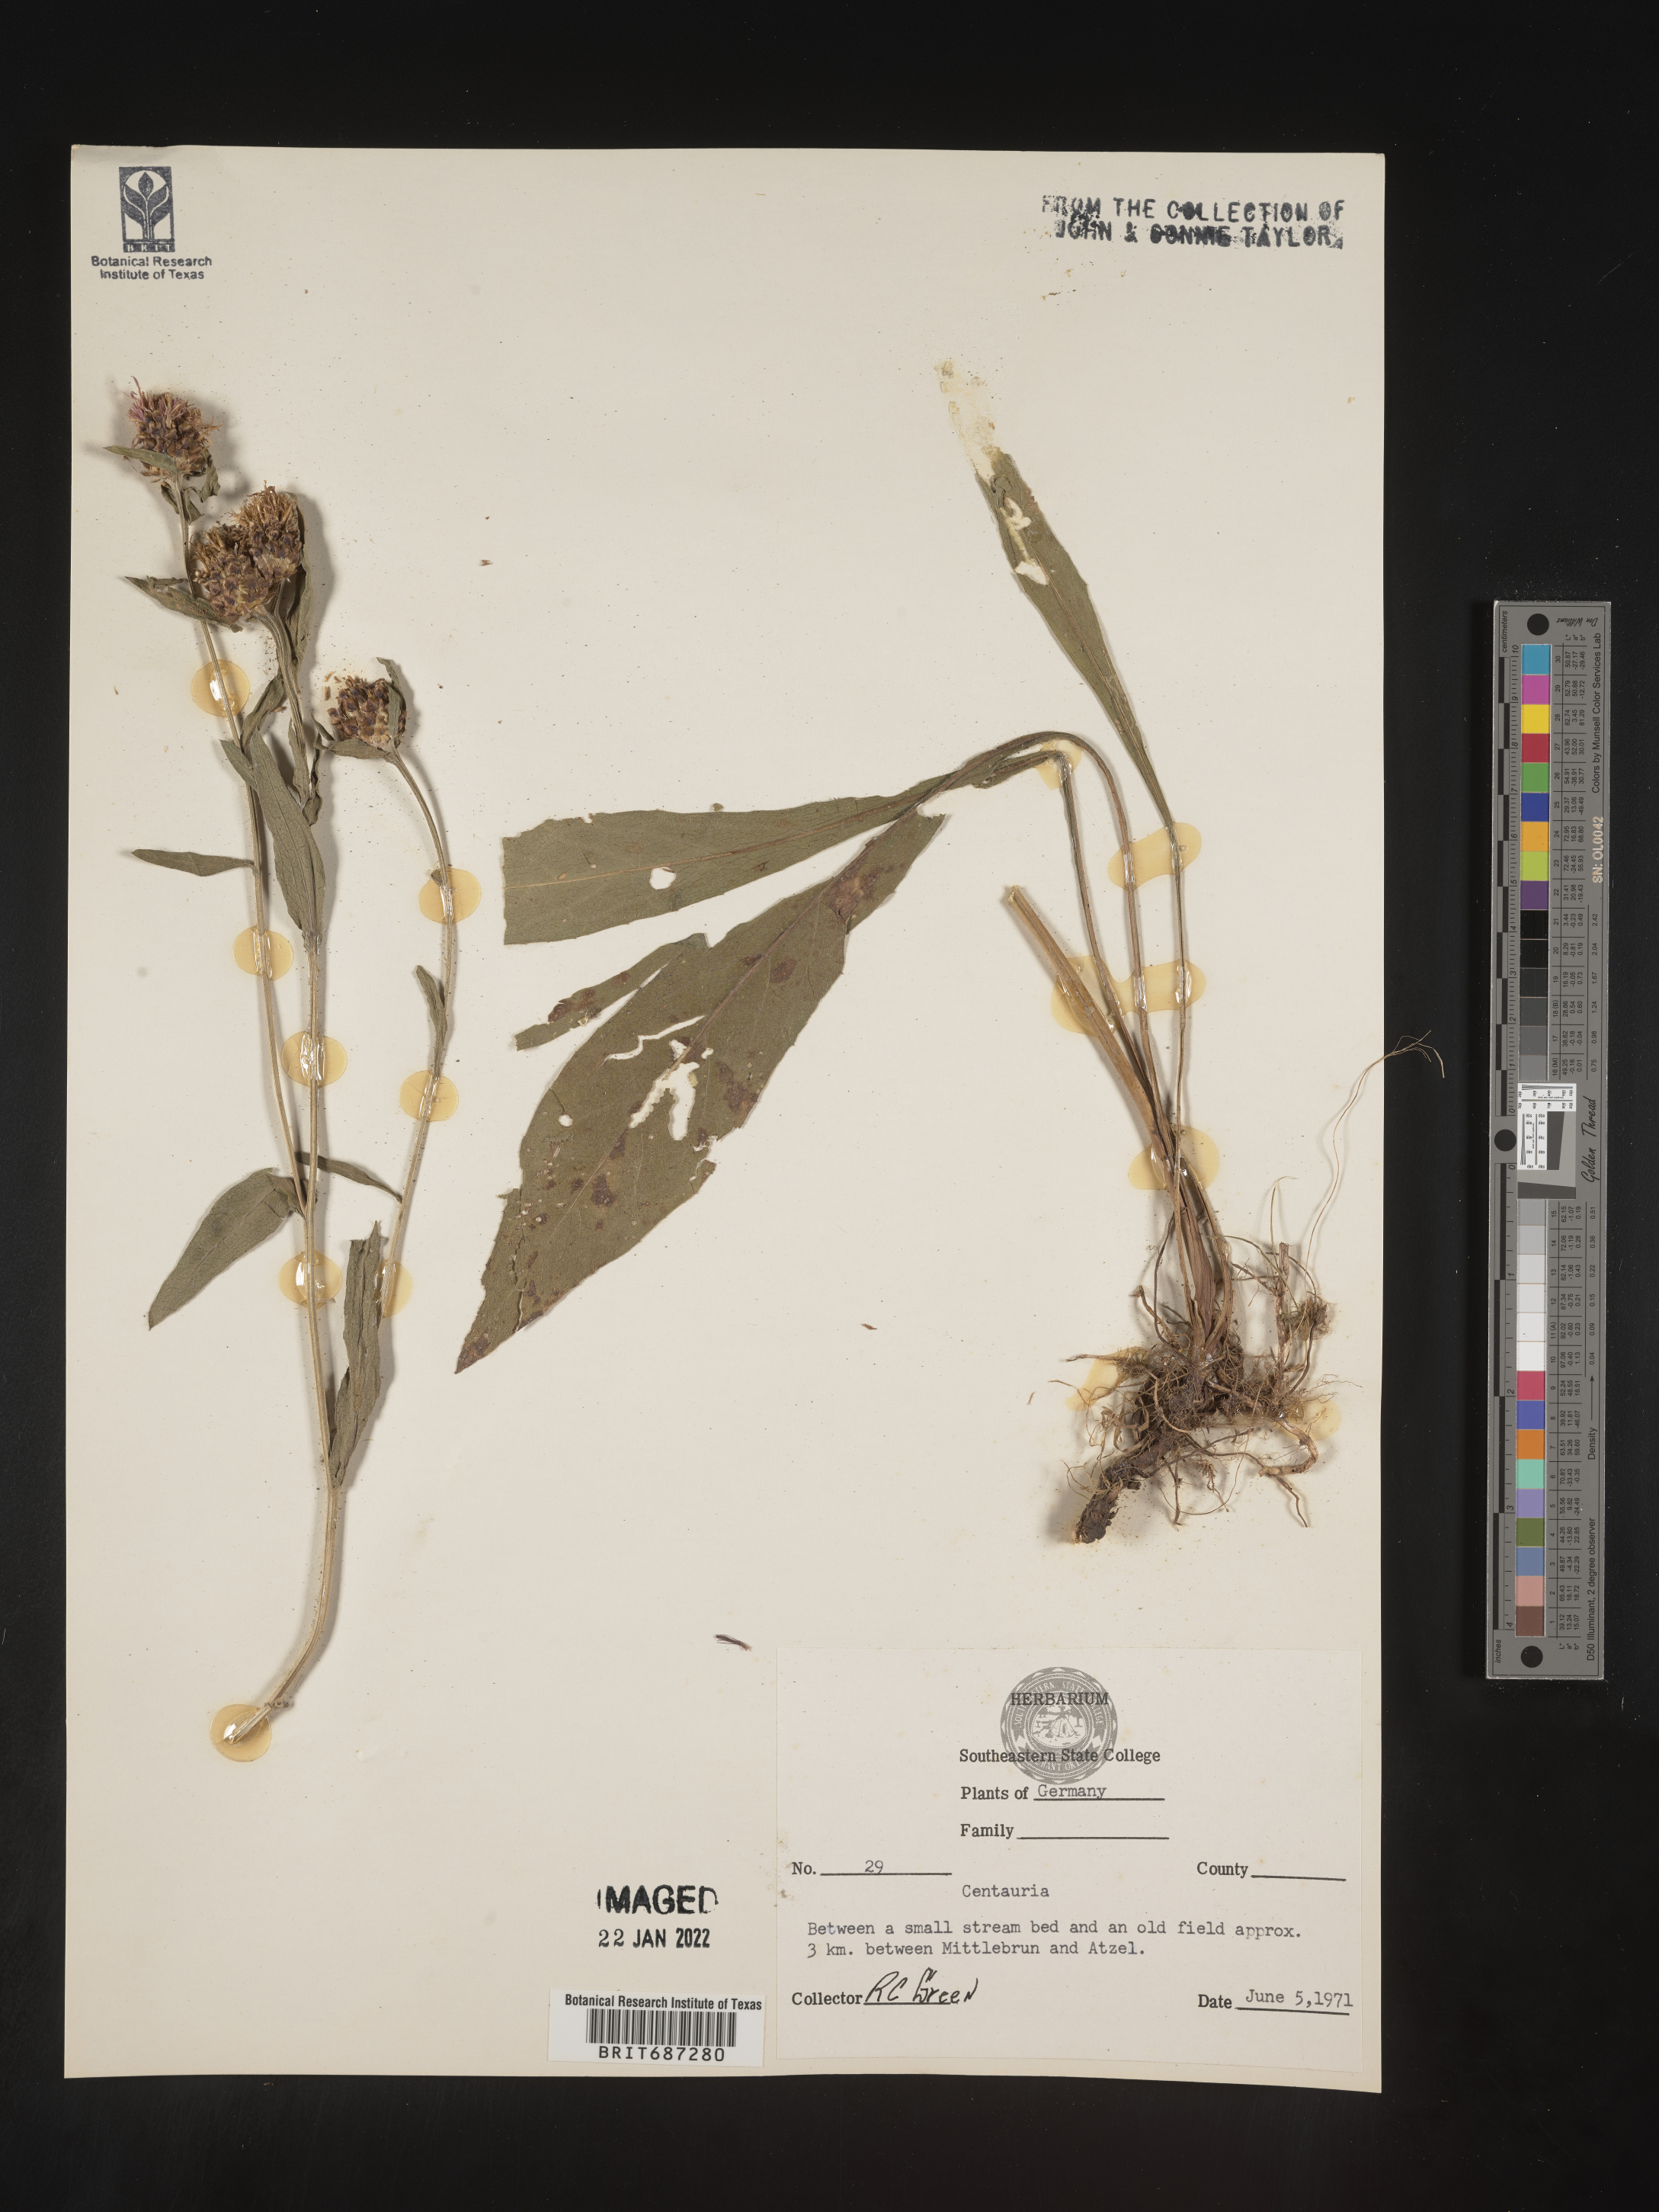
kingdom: Plantae
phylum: Tracheophyta
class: Magnoliopsida
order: Asterales
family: Asteraceae
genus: Centaurea
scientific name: Centaurea
